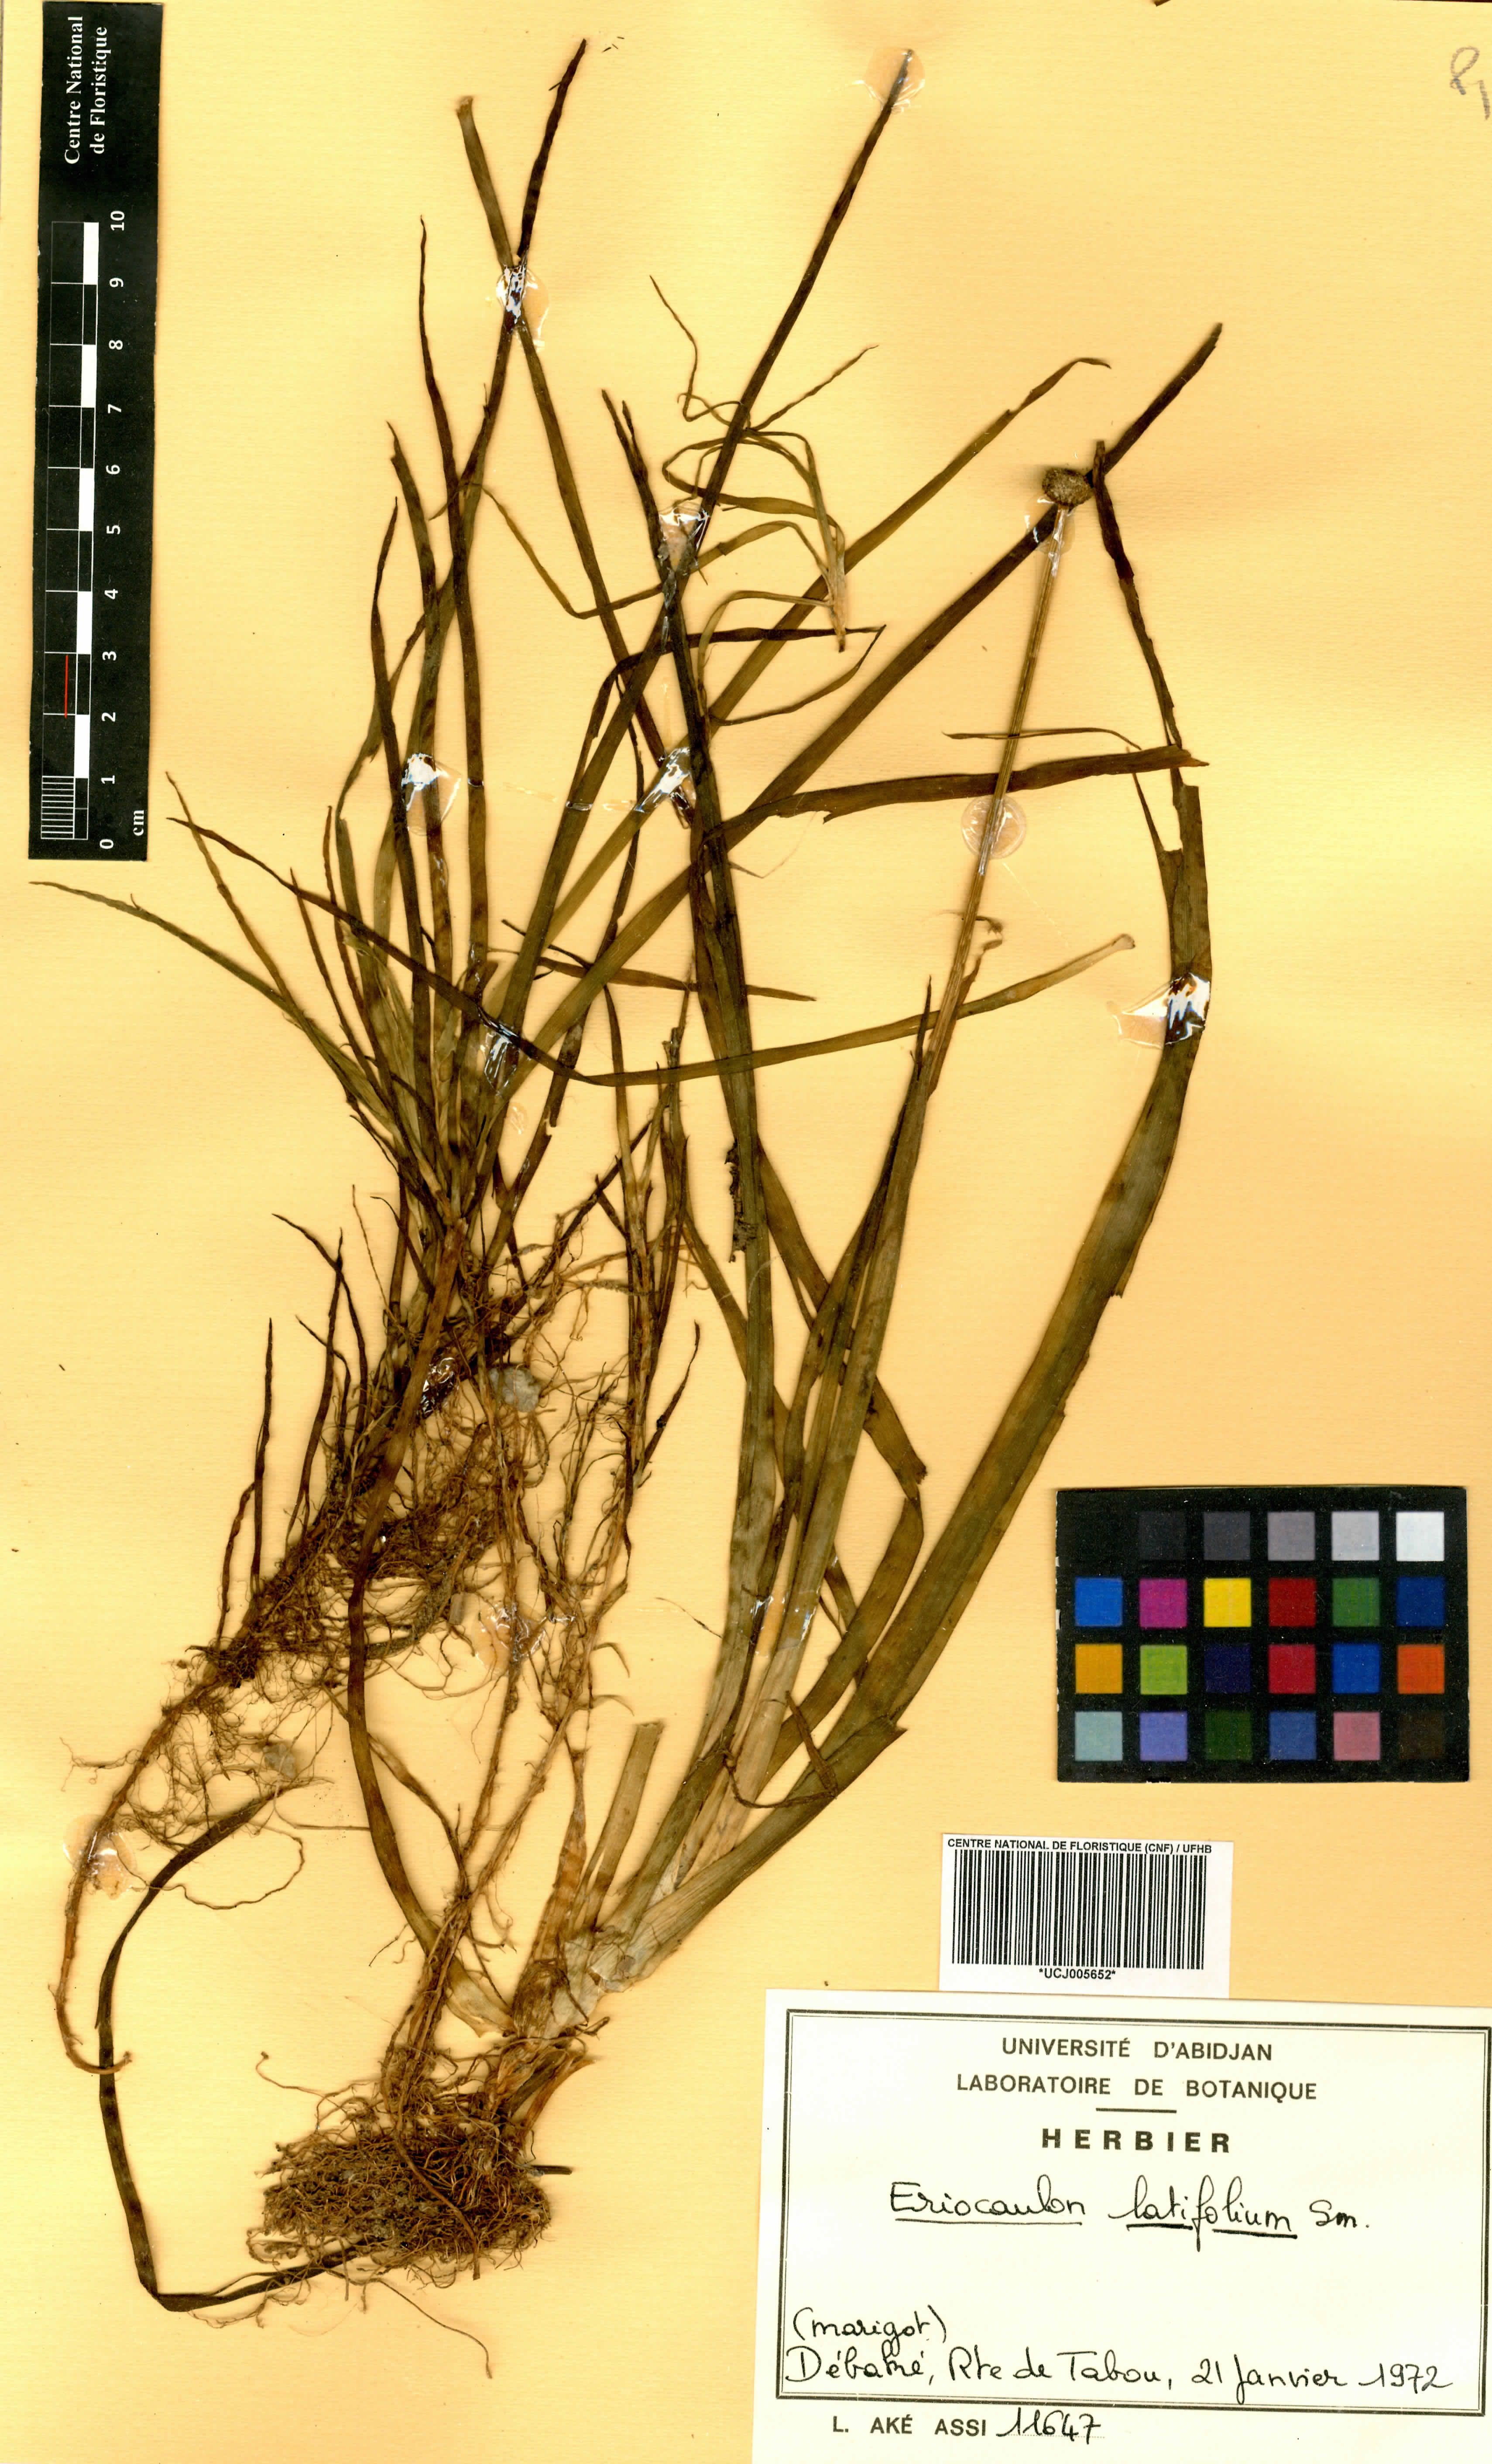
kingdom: Plantae
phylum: Tracheophyta
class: Liliopsida
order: Poales
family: Eriocaulaceae
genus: Eriocaulon
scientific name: Eriocaulon latifolium
